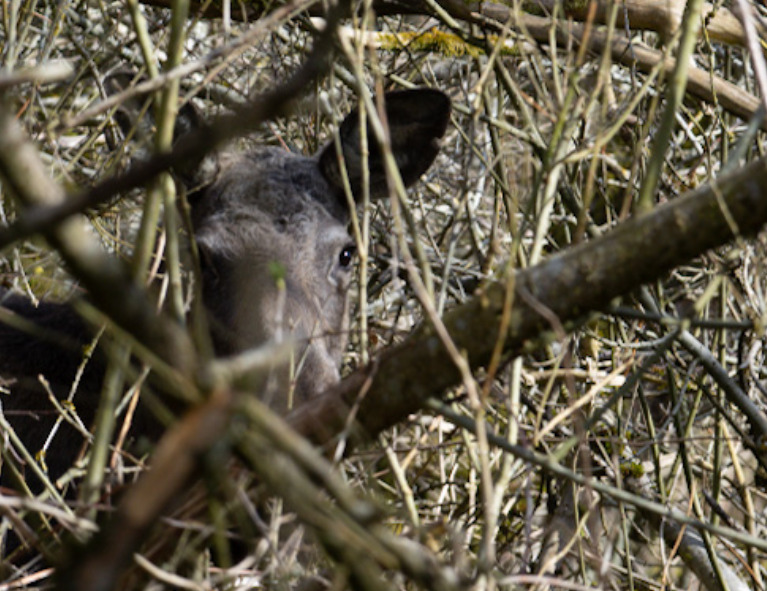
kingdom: Animalia
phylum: Chordata
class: Mammalia
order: Artiodactyla
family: Cervidae
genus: Alces
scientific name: Alces alces
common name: Elg
